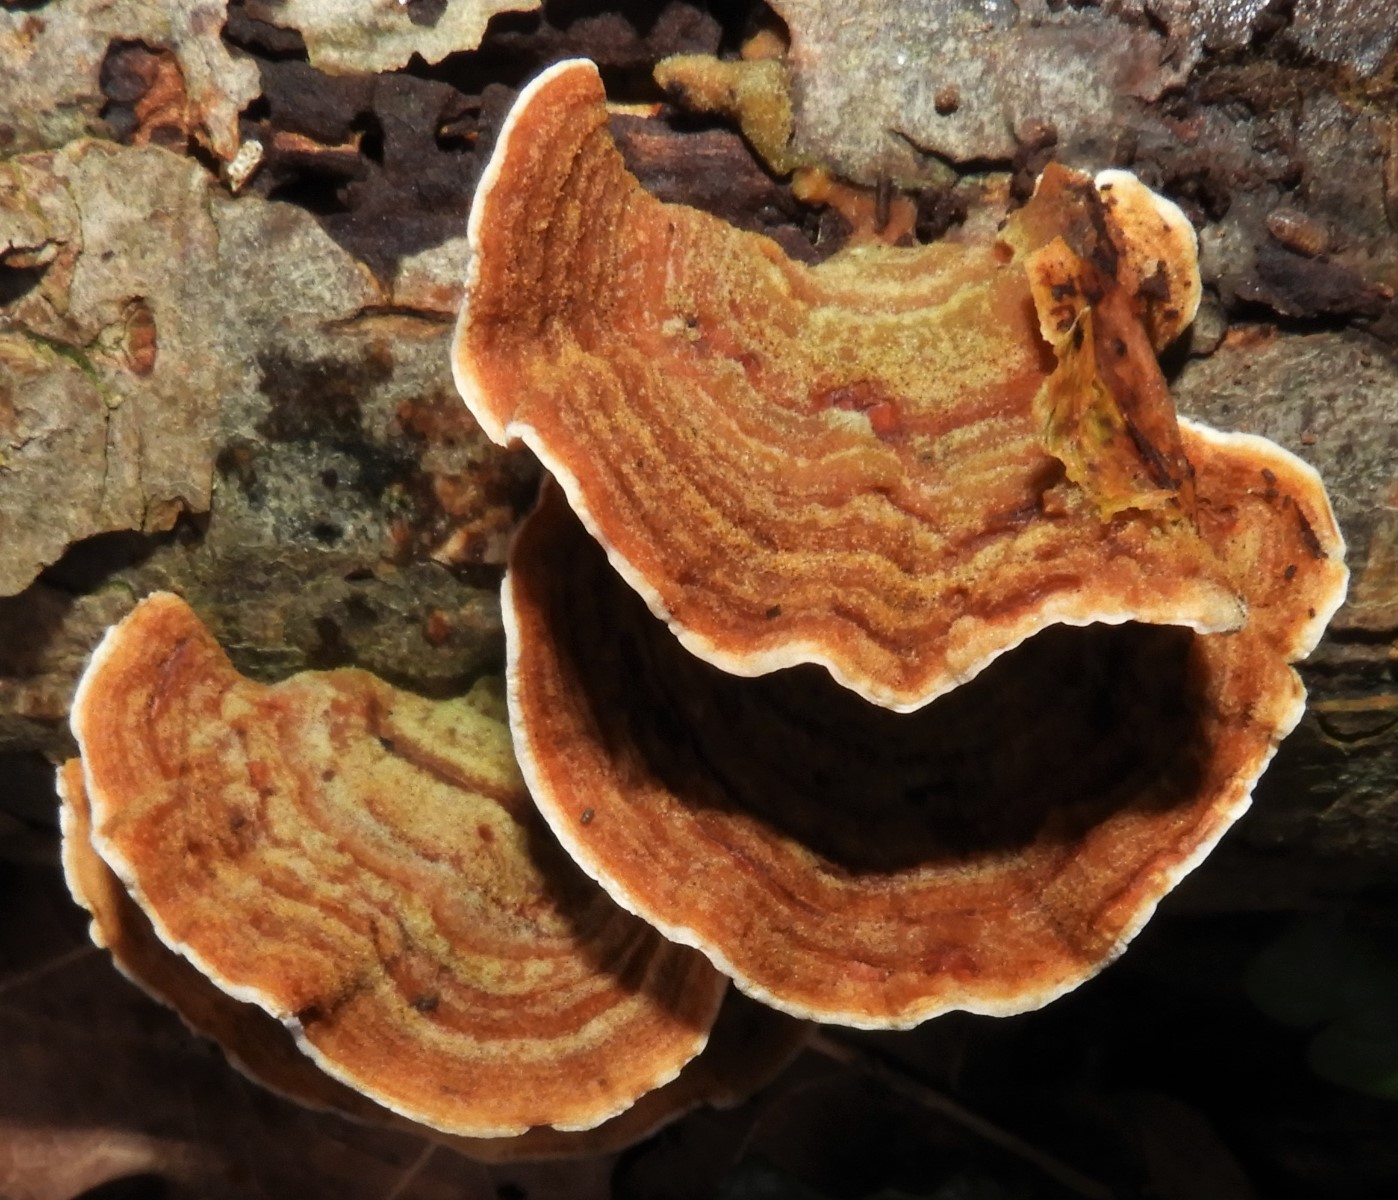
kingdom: Fungi
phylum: Basidiomycota
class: Agaricomycetes
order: Russulales
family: Stereaceae
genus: Stereum
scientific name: Stereum subtomentosum
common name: smuk lædersvamp
